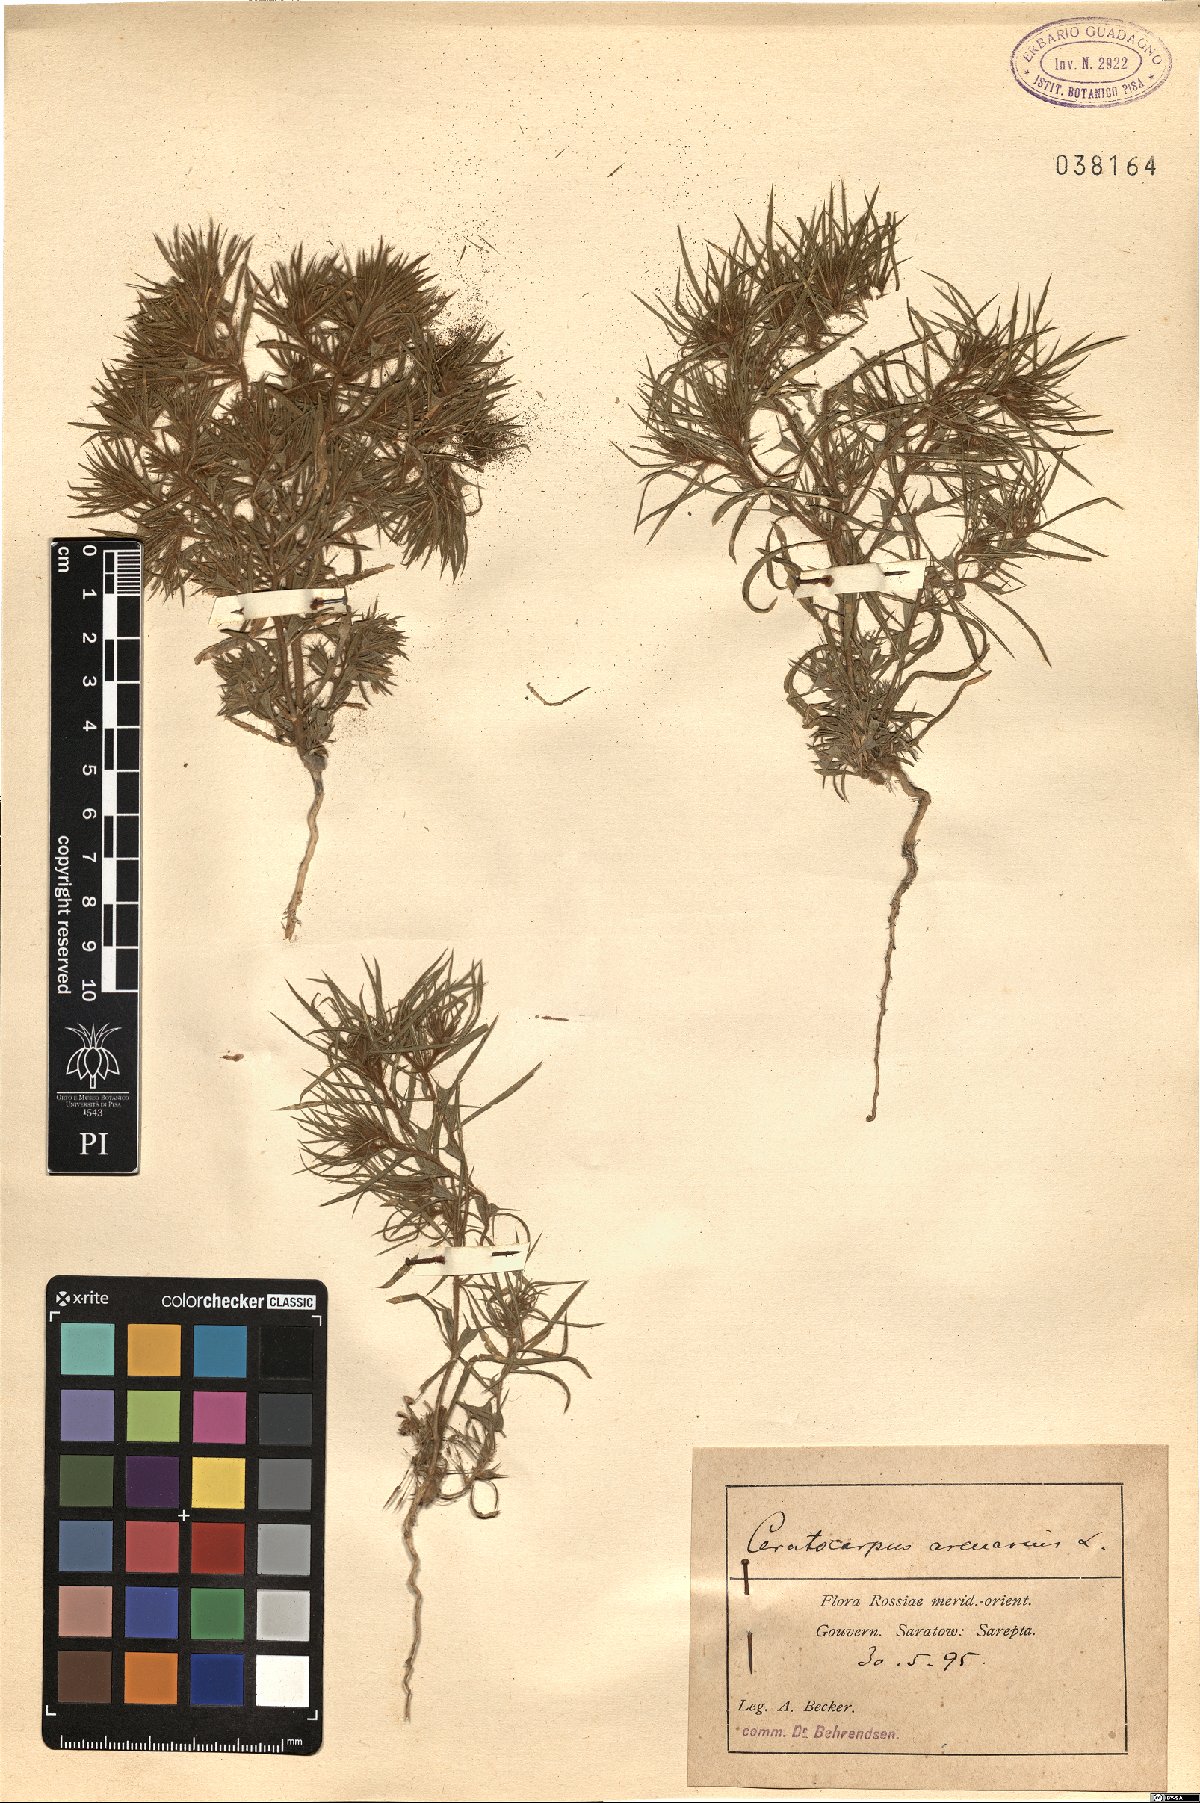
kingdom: Plantae
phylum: Tracheophyta
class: Magnoliopsida
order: Caryophyllales
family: Amaranthaceae
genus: Ceratocarpus
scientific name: Ceratocarpus arenarius
